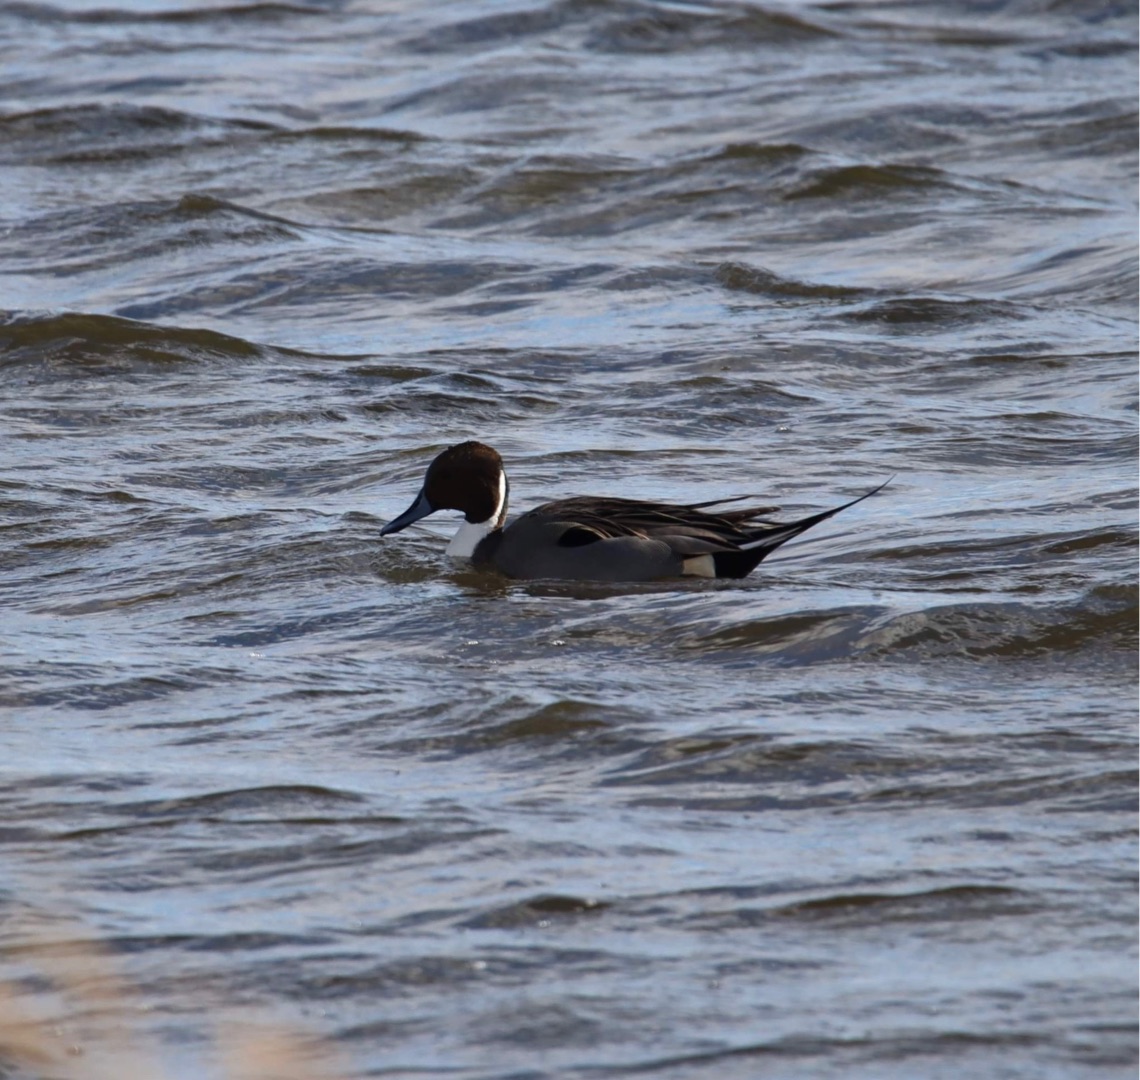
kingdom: Animalia
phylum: Chordata
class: Aves
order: Anseriformes
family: Anatidae
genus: Anas
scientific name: Anas acuta
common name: Spidsand
